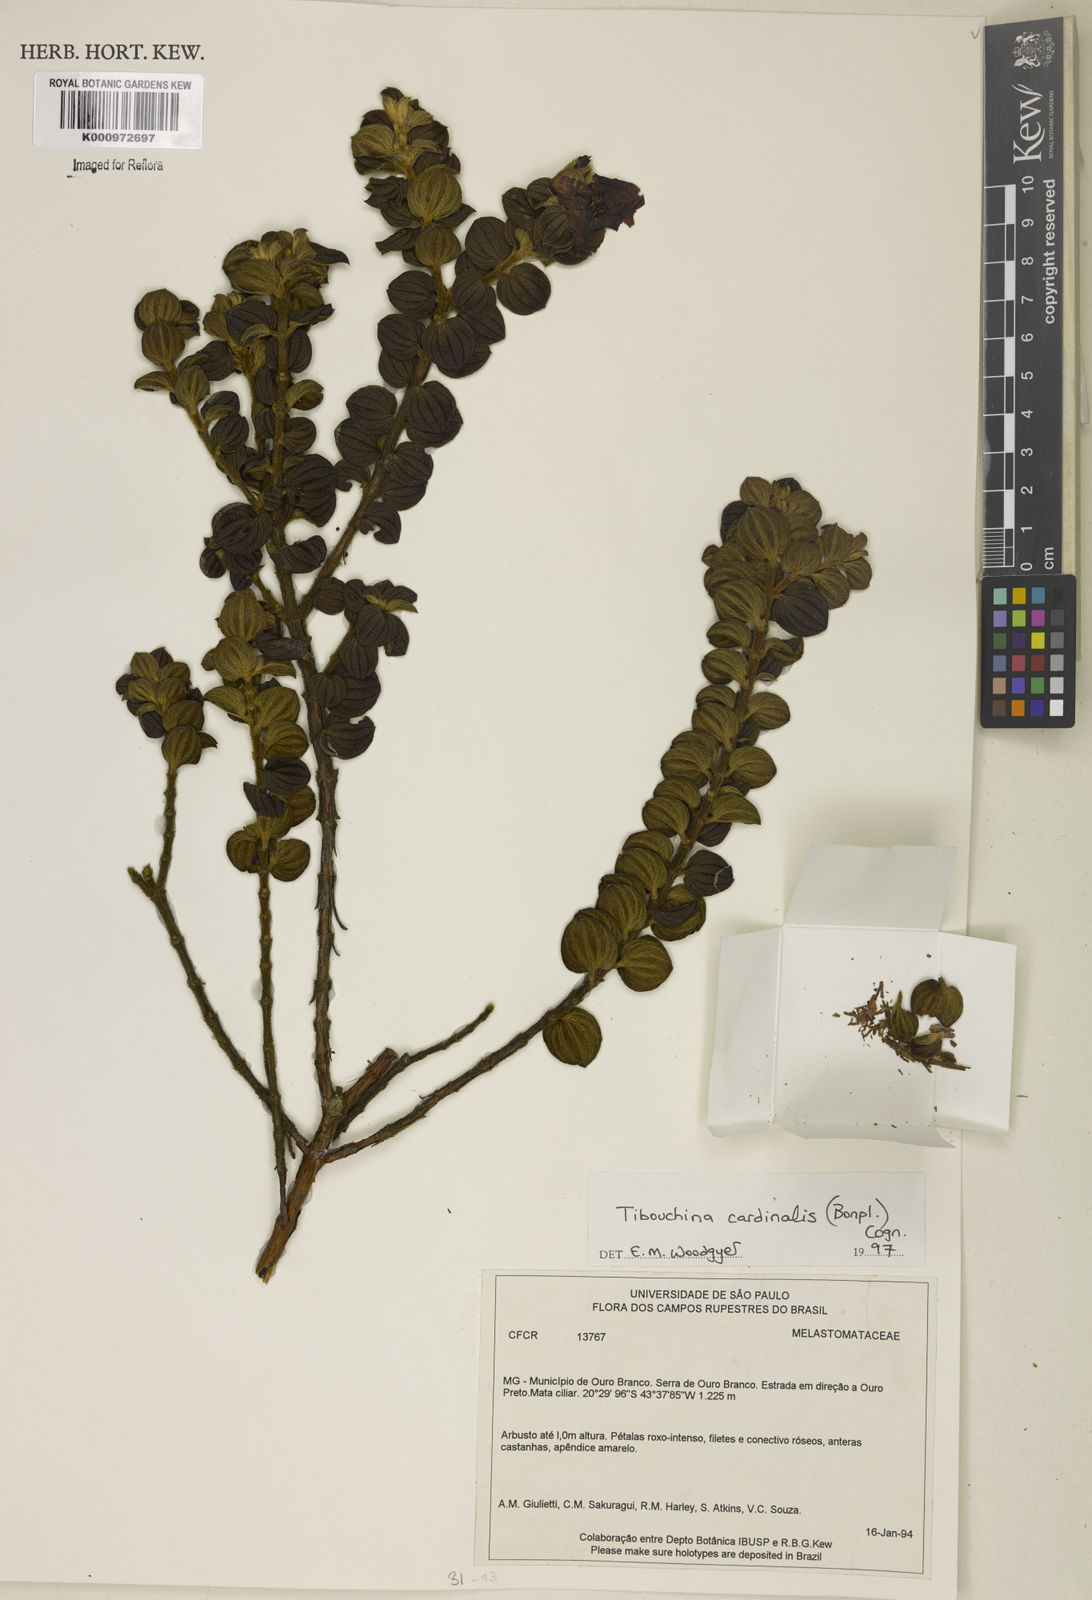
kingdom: Plantae
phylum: Tracheophyta
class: Magnoliopsida
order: Myrtales
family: Melastomataceae
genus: Chaetogastra
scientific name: Chaetogastra cardinalis
